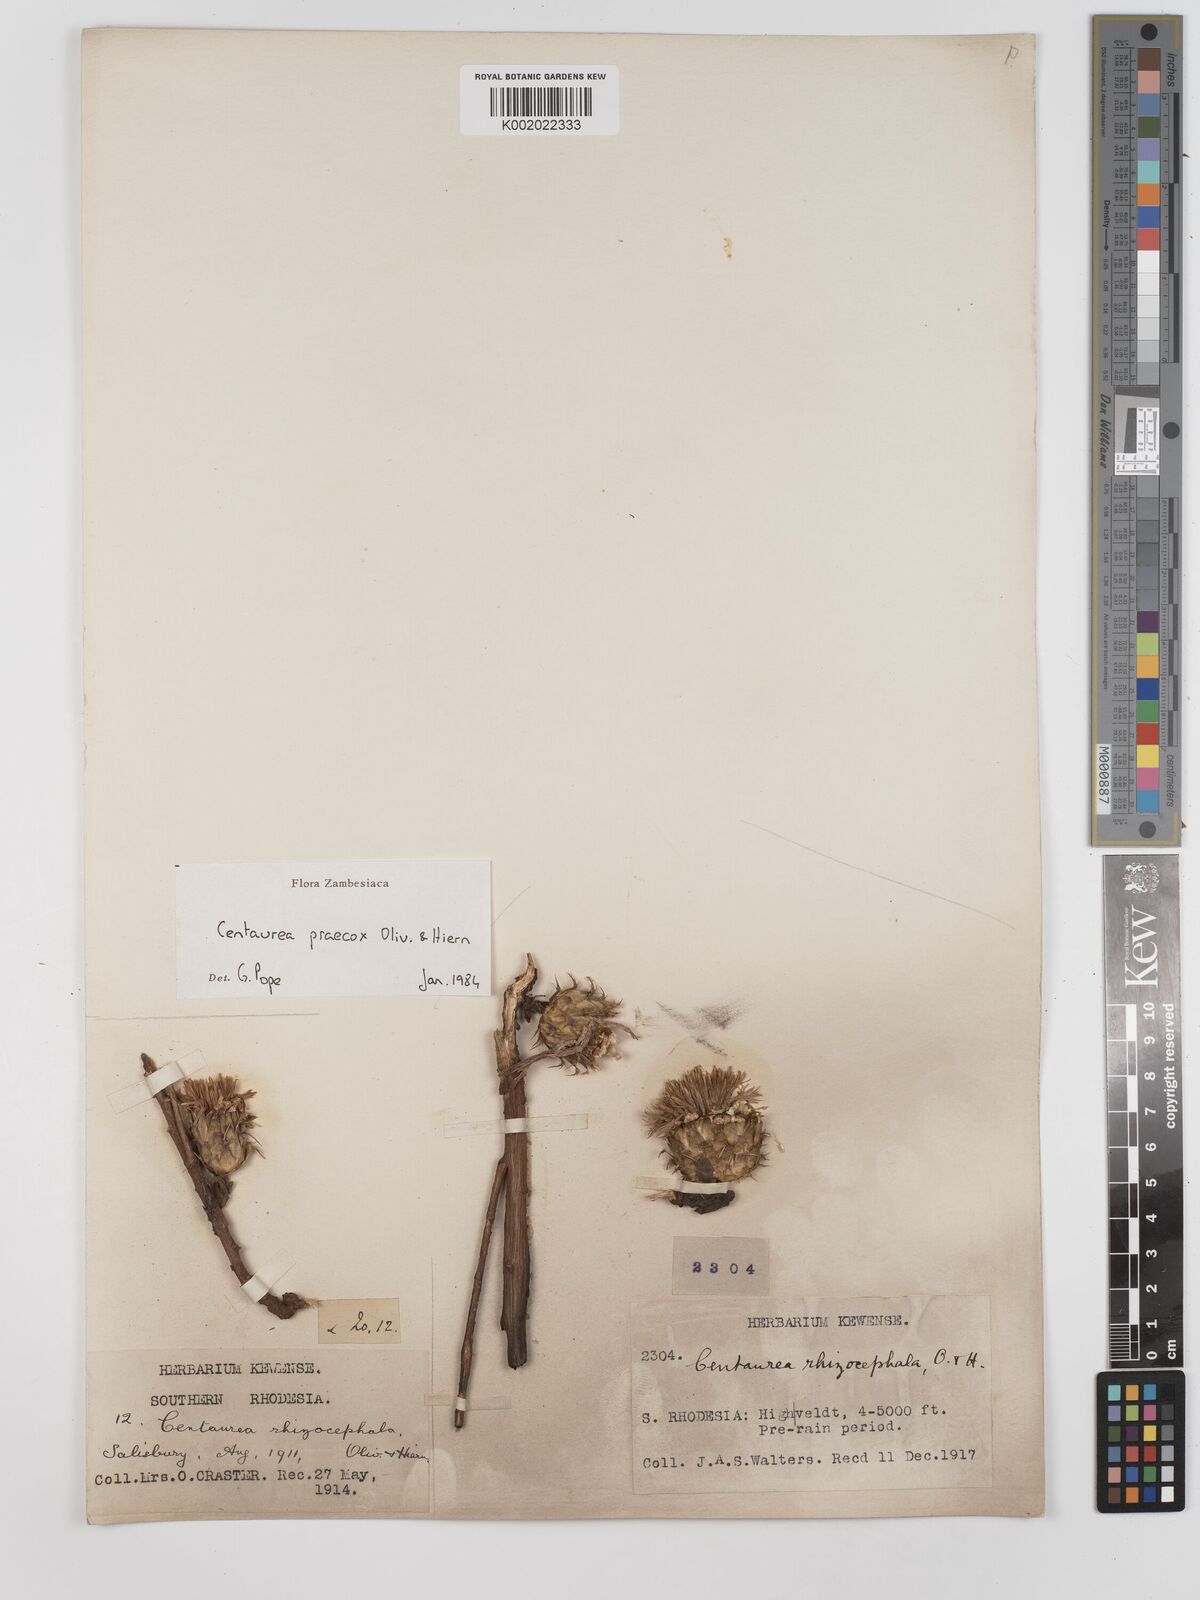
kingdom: Plantae
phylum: Tracheophyta
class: Magnoliopsida
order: Asterales
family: Asteraceae
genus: Centaurea
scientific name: Centaurea praecox
